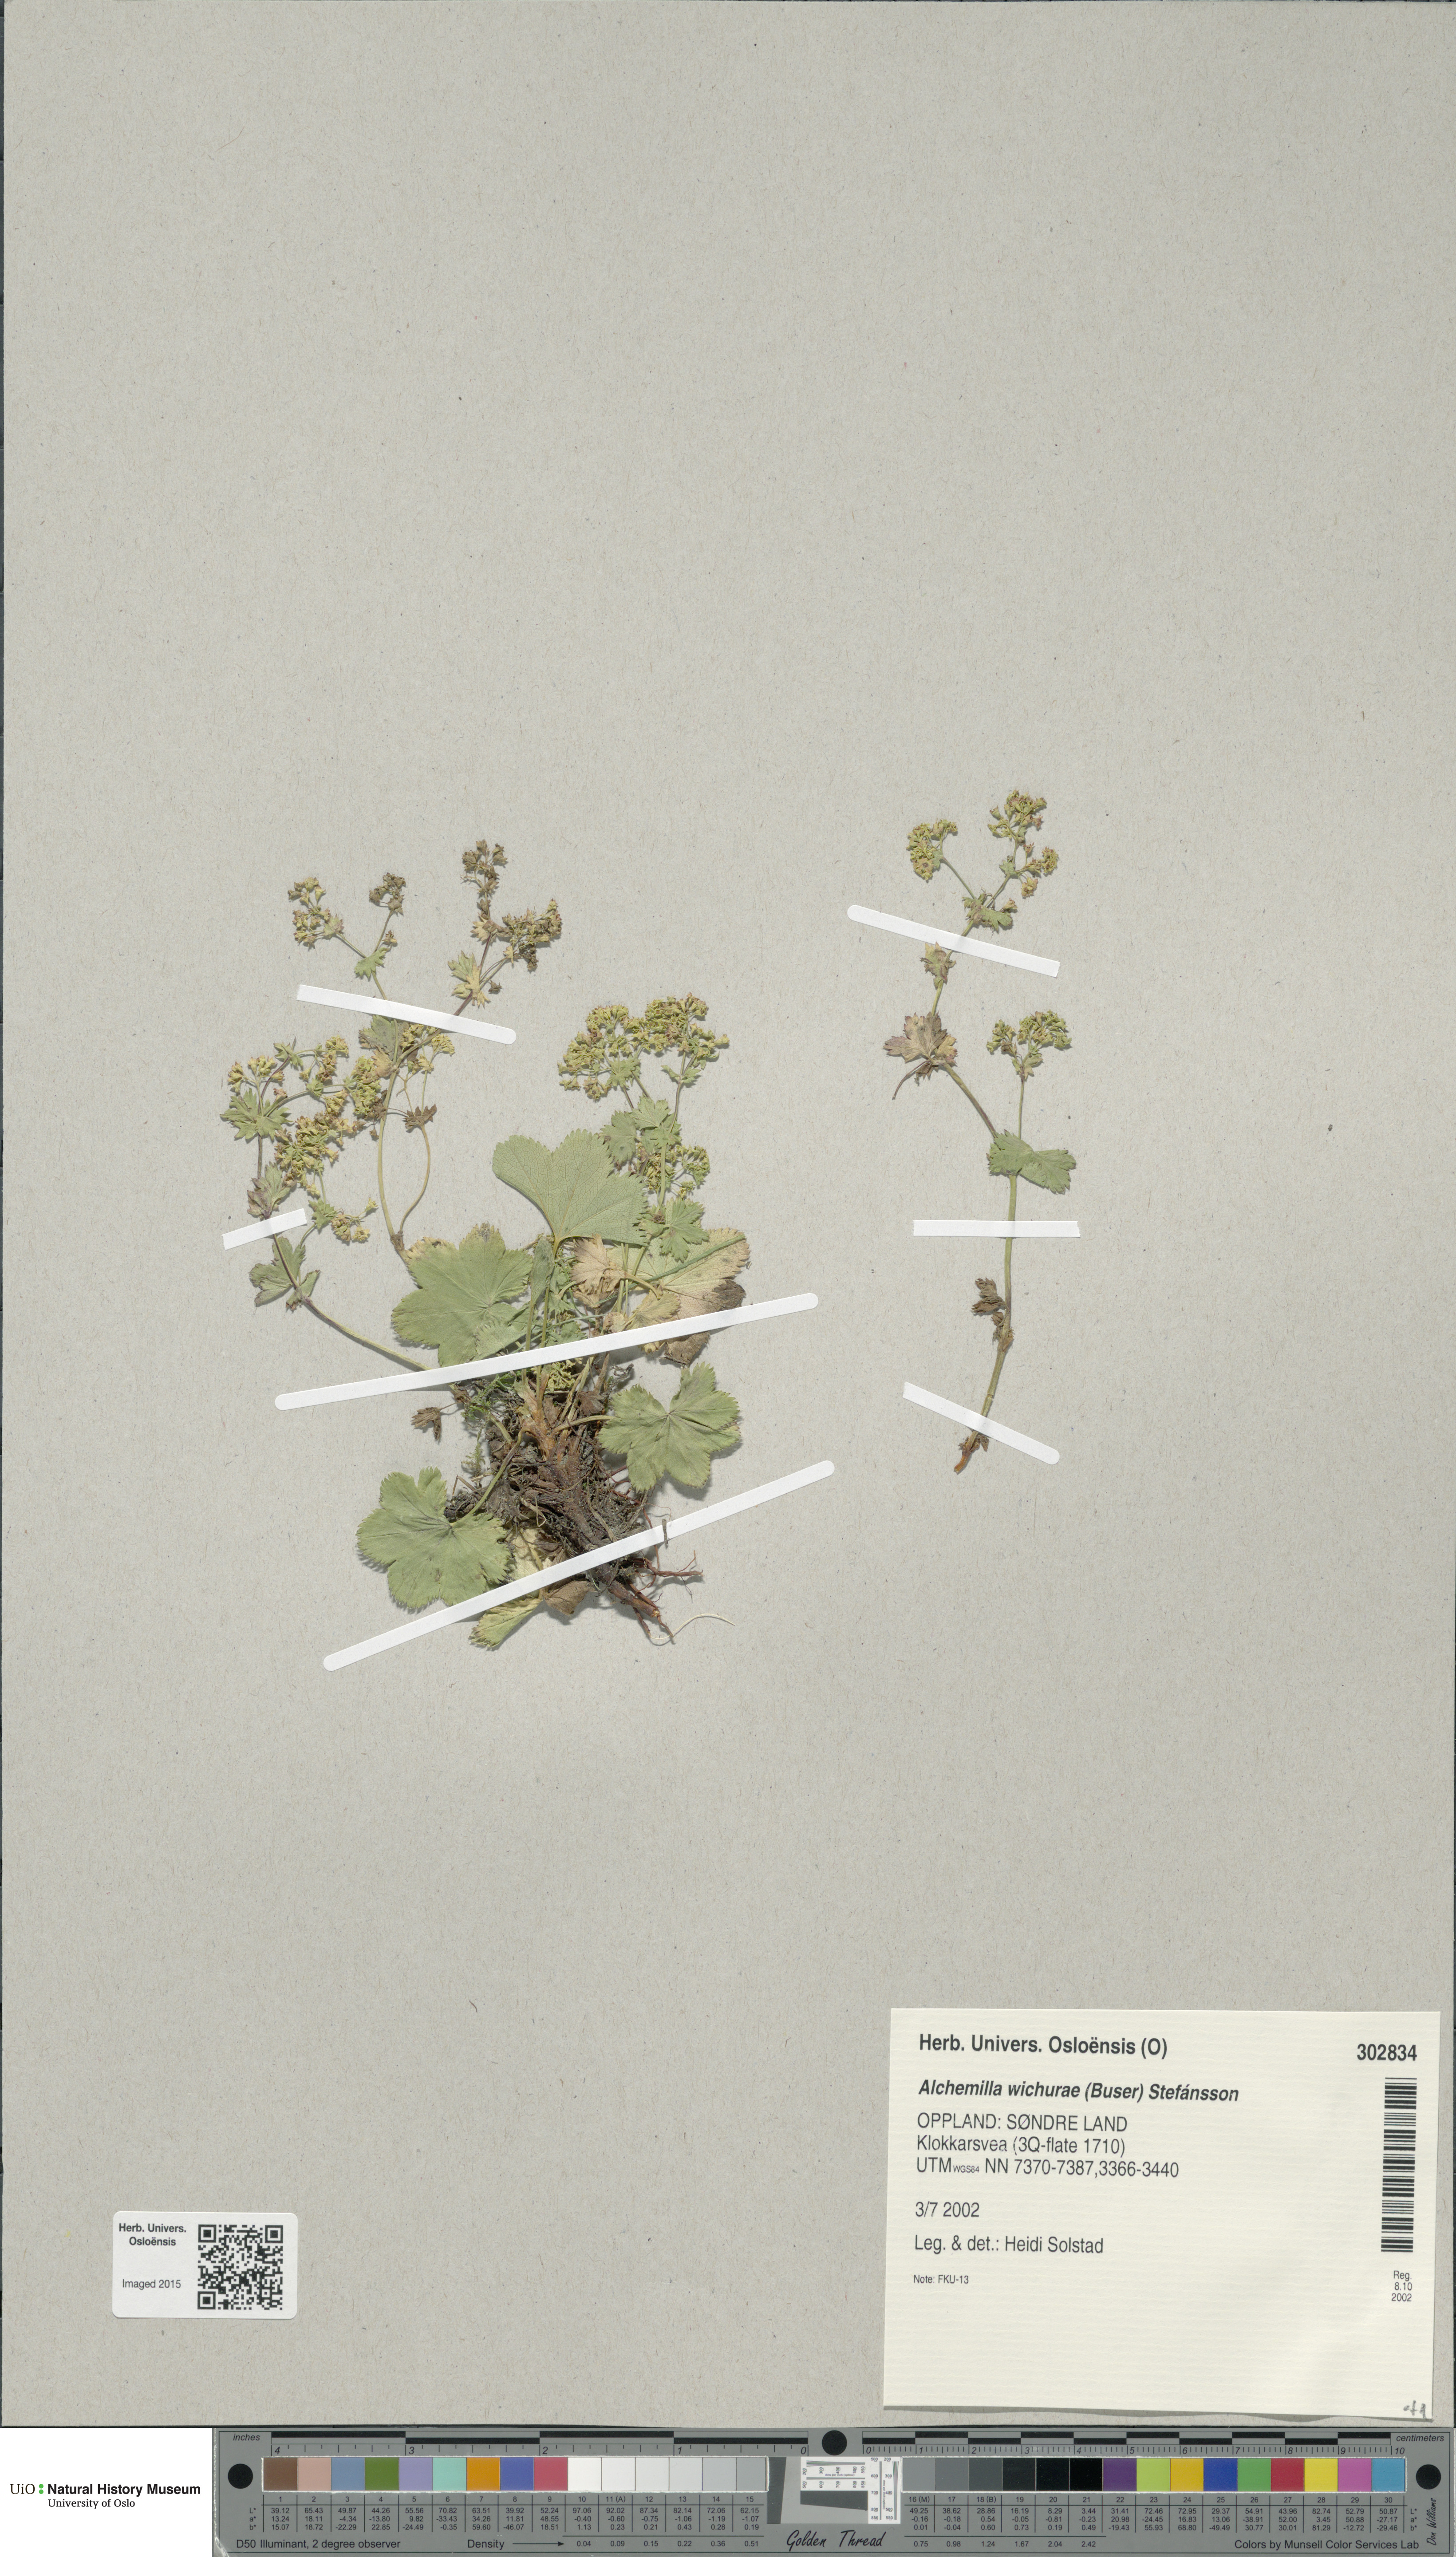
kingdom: Plantae
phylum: Tracheophyta
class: Magnoliopsida
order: Rosales
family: Rosaceae
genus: Alchemilla
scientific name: Alchemilla wichurae
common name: Rock lady's mantle
